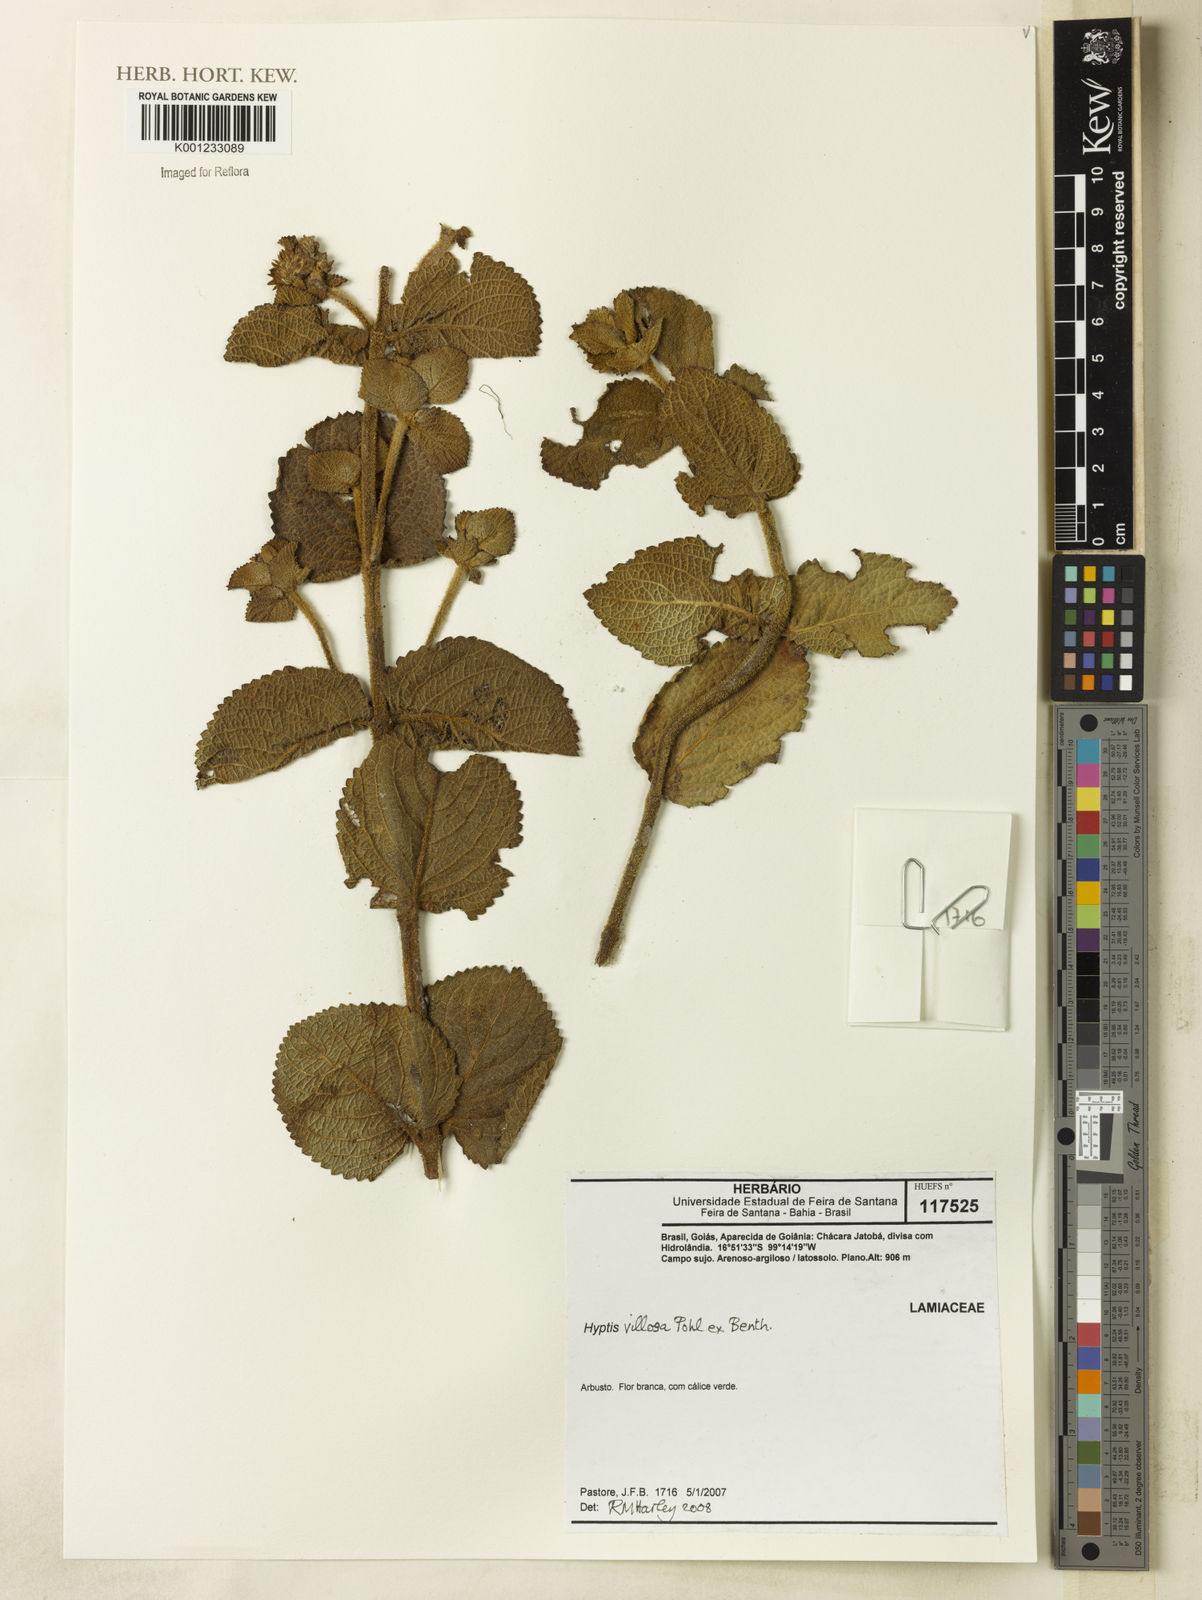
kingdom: Plantae
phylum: Tracheophyta
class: Magnoliopsida
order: Lamiales
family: Lamiaceae
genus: Hyptis
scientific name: Hyptis villosa
